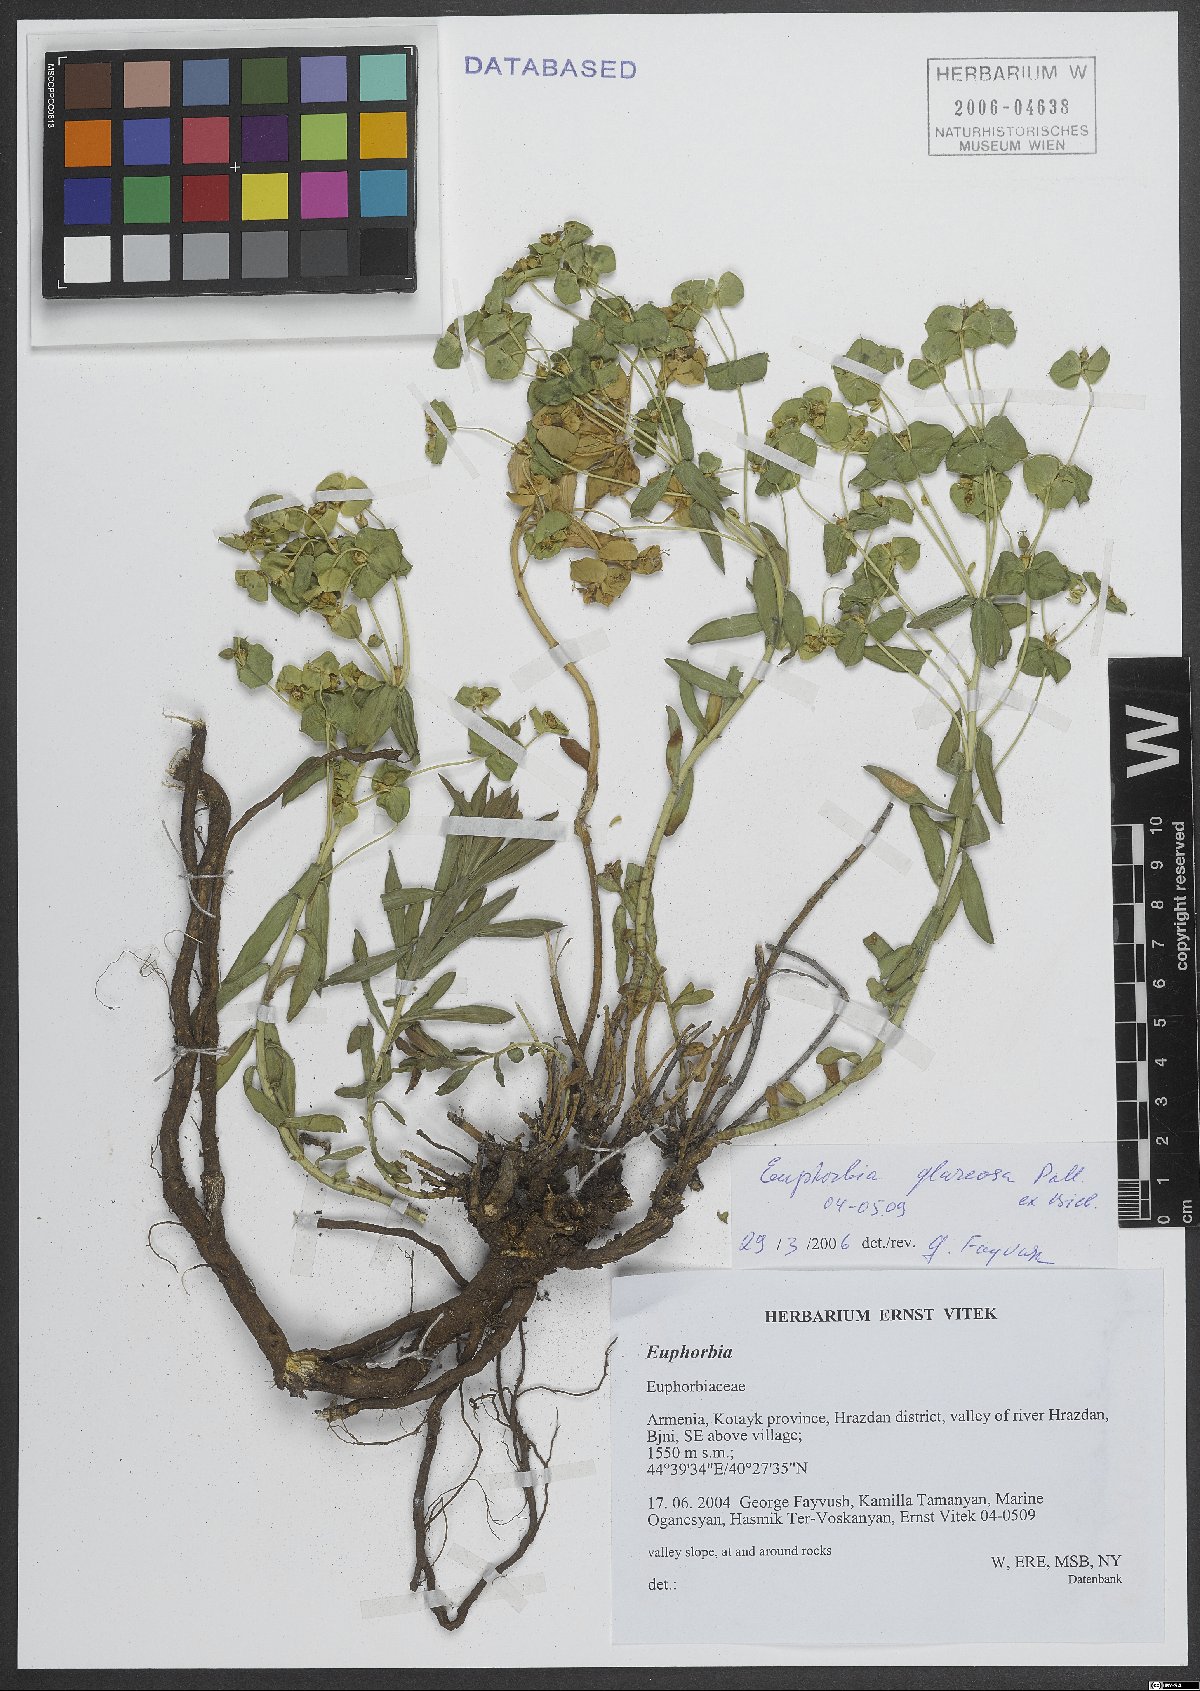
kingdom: Plantae
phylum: Tracheophyta
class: Magnoliopsida
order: Malpighiales
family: Euphorbiaceae
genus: Euphorbia
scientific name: Euphorbia glareosa
